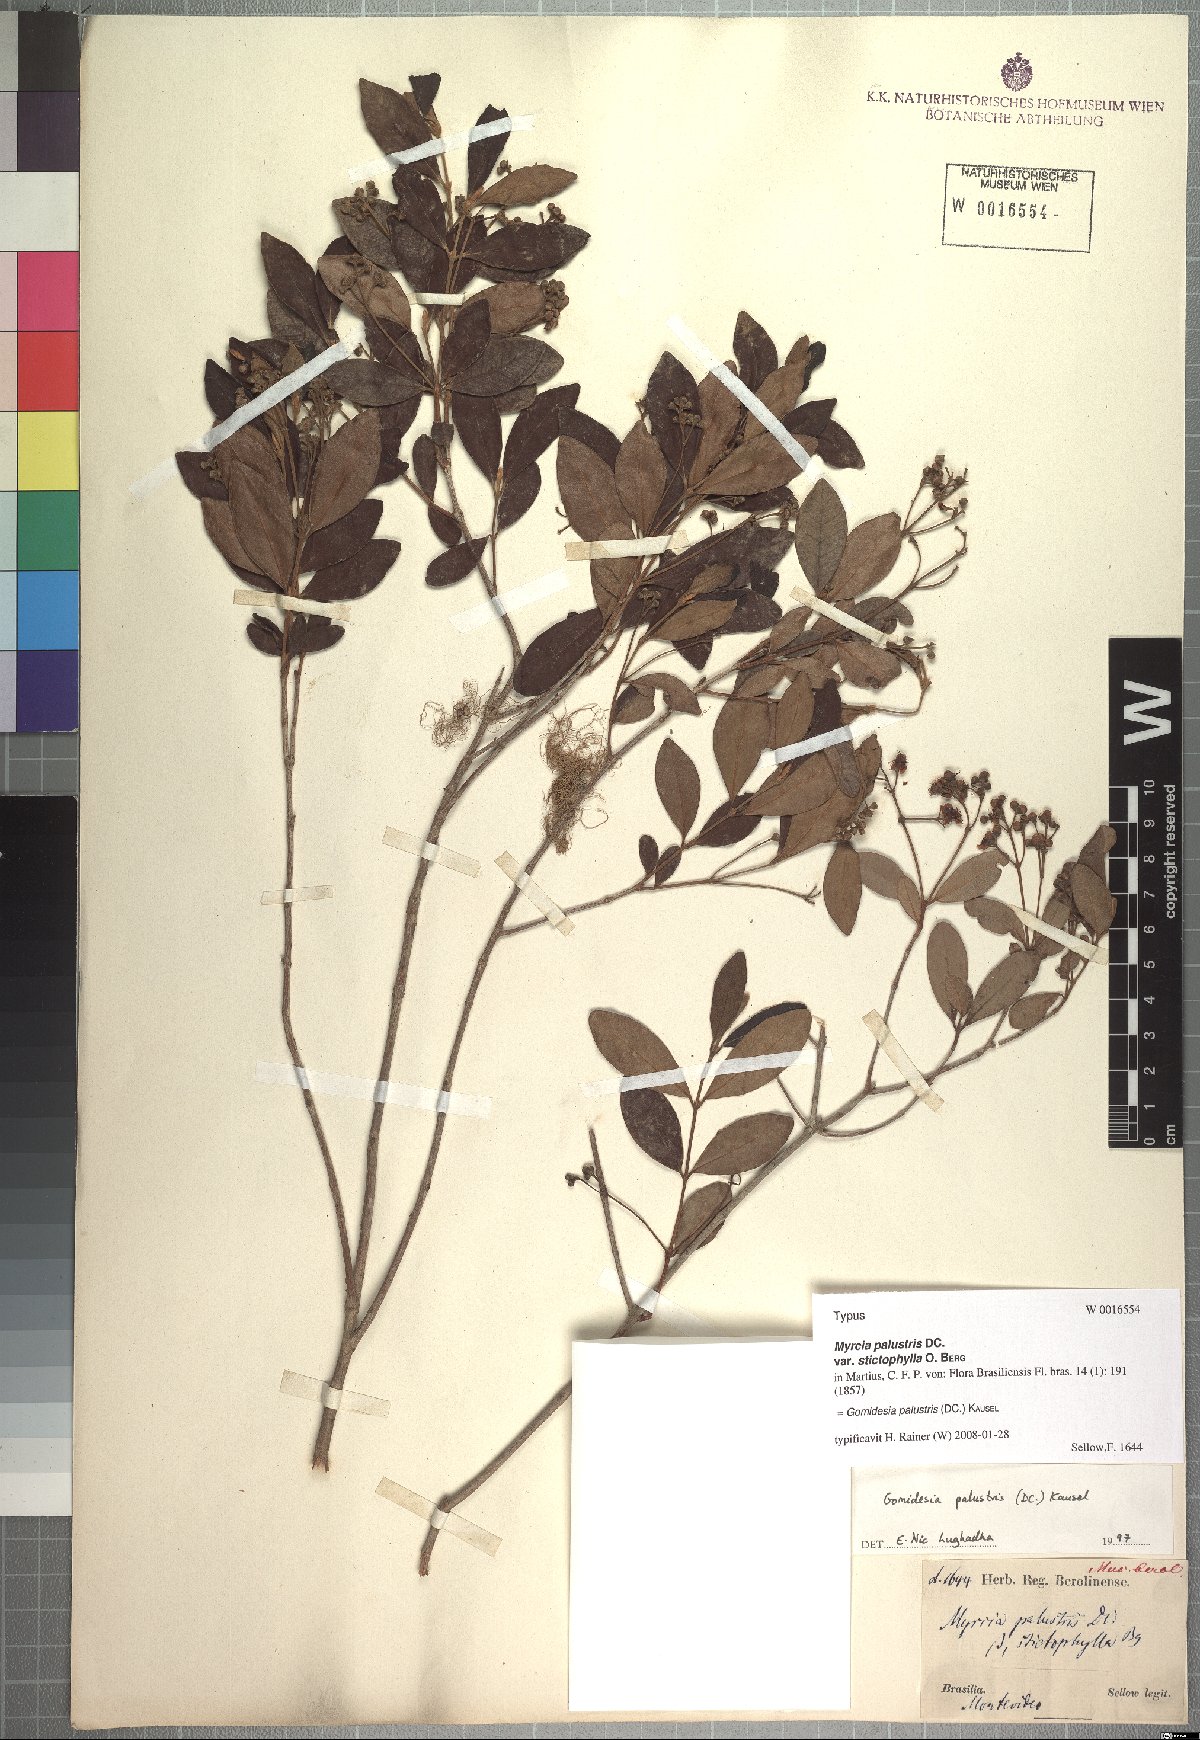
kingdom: Plantae
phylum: Tracheophyta
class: Magnoliopsida
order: Myrtales
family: Myrtaceae
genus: Myrcia
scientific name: Myrcia palustris
